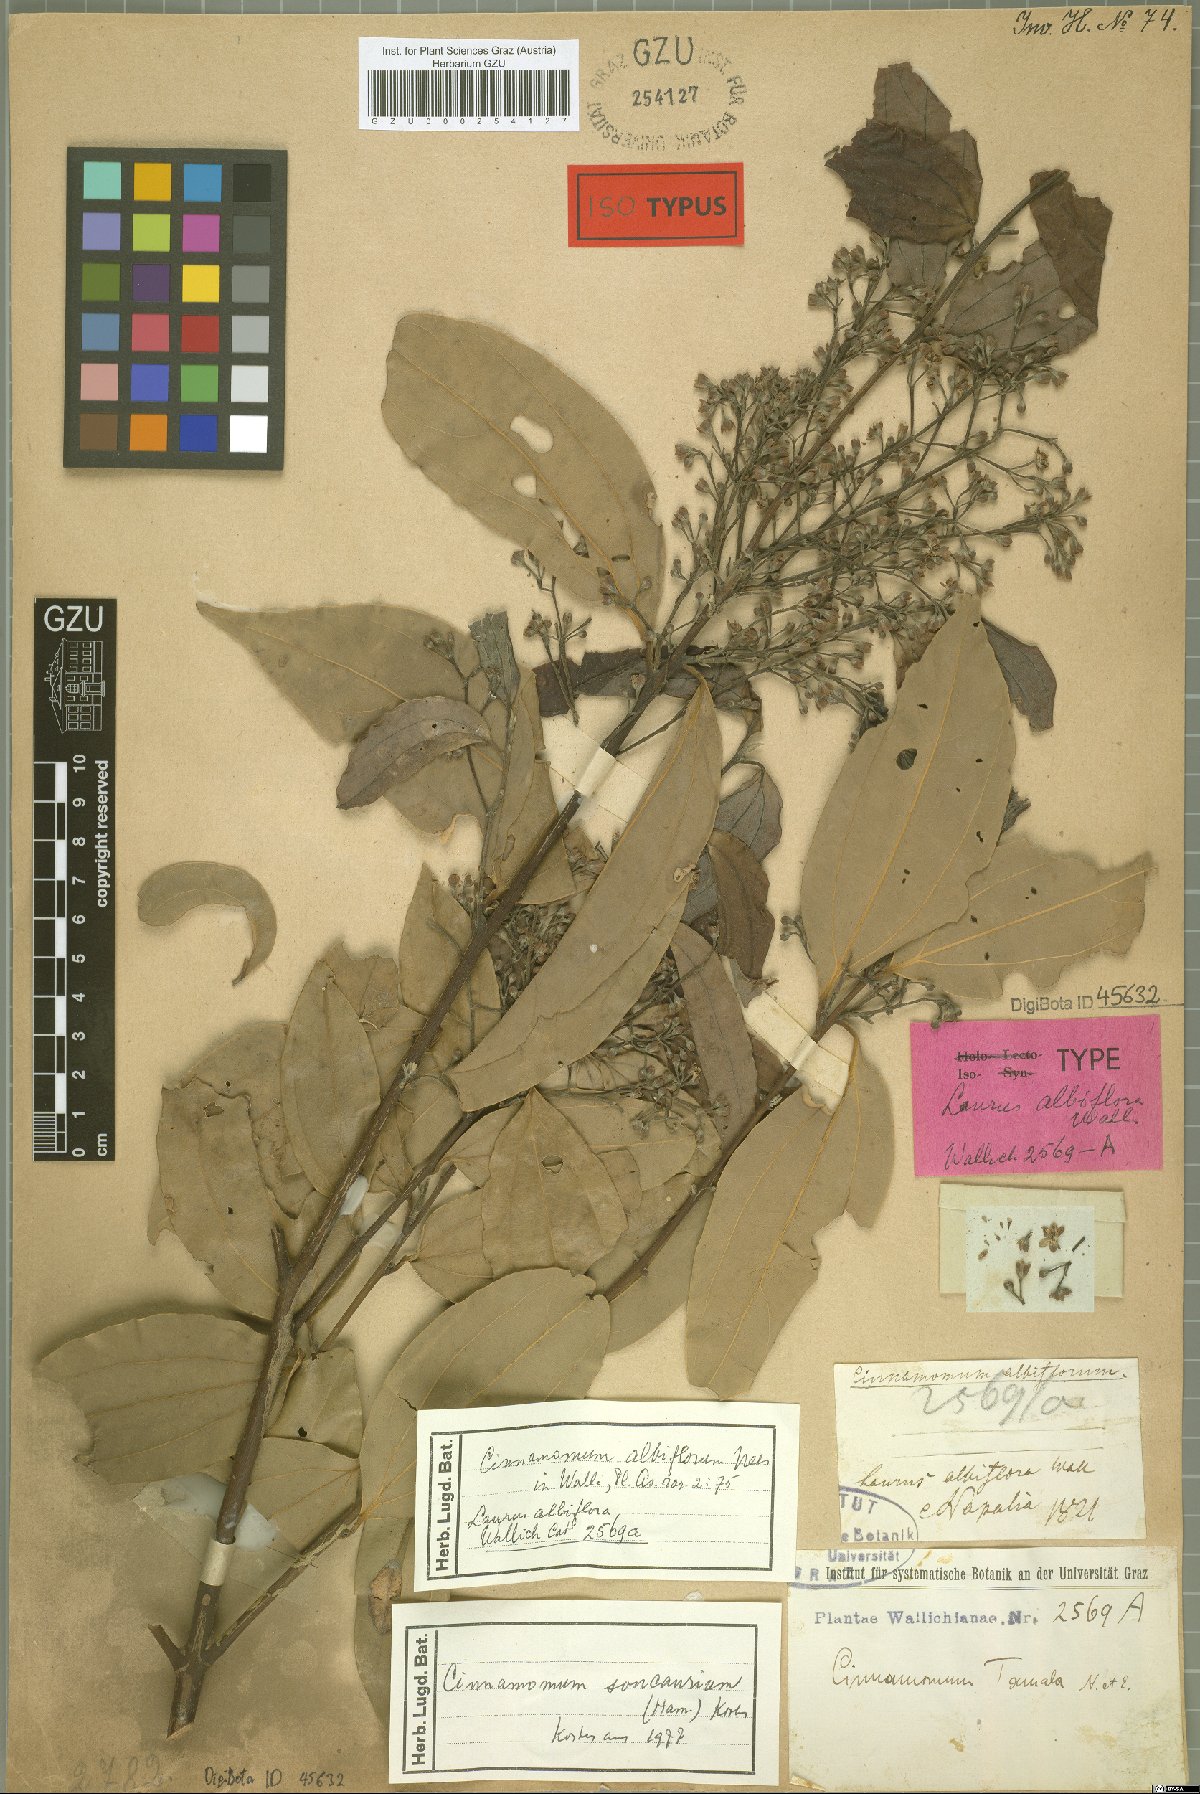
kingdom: Plantae
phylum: Tracheophyta
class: Magnoliopsida
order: Laurales
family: Lauraceae
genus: Cinnamomum
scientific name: Cinnamomum tamala
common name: Indian bay leaves
